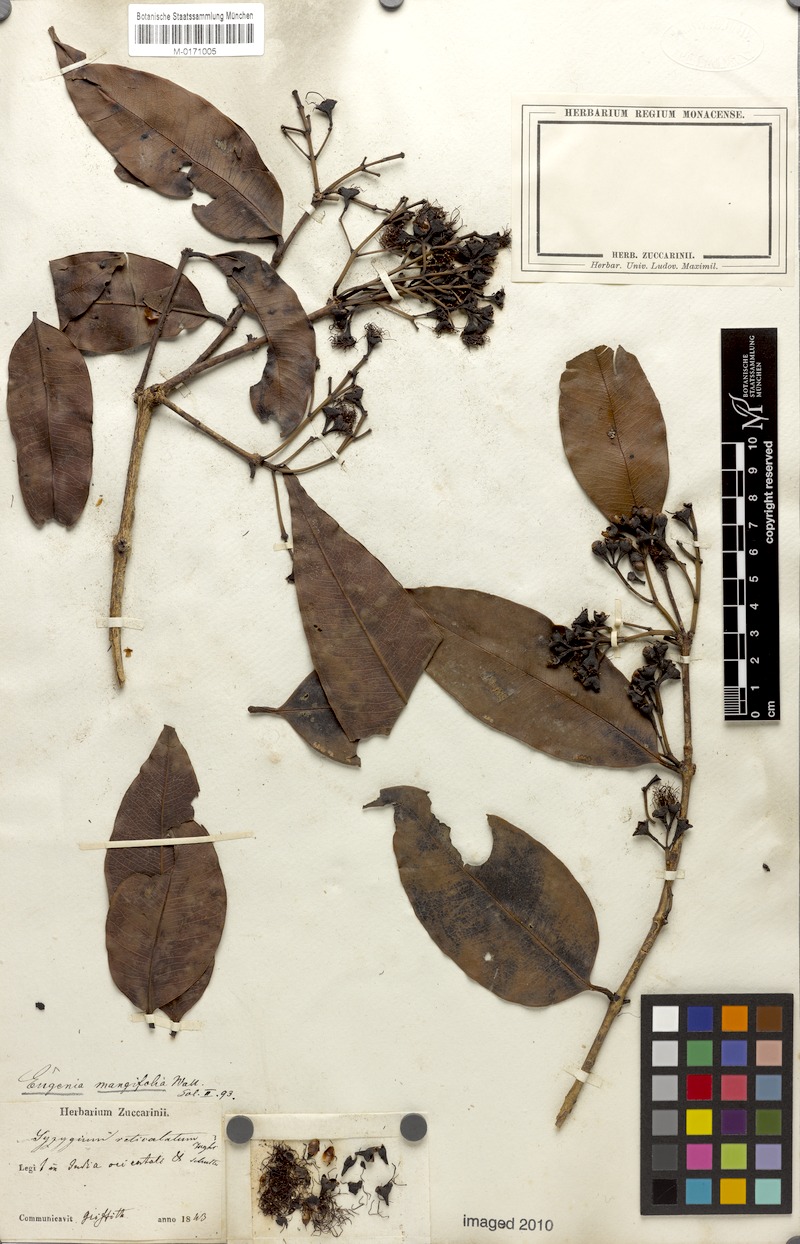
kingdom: Plantae
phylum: Tracheophyta
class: Magnoliopsida
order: Myrtales
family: Myrtaceae
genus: Syzygium
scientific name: Syzygium reticulatum
